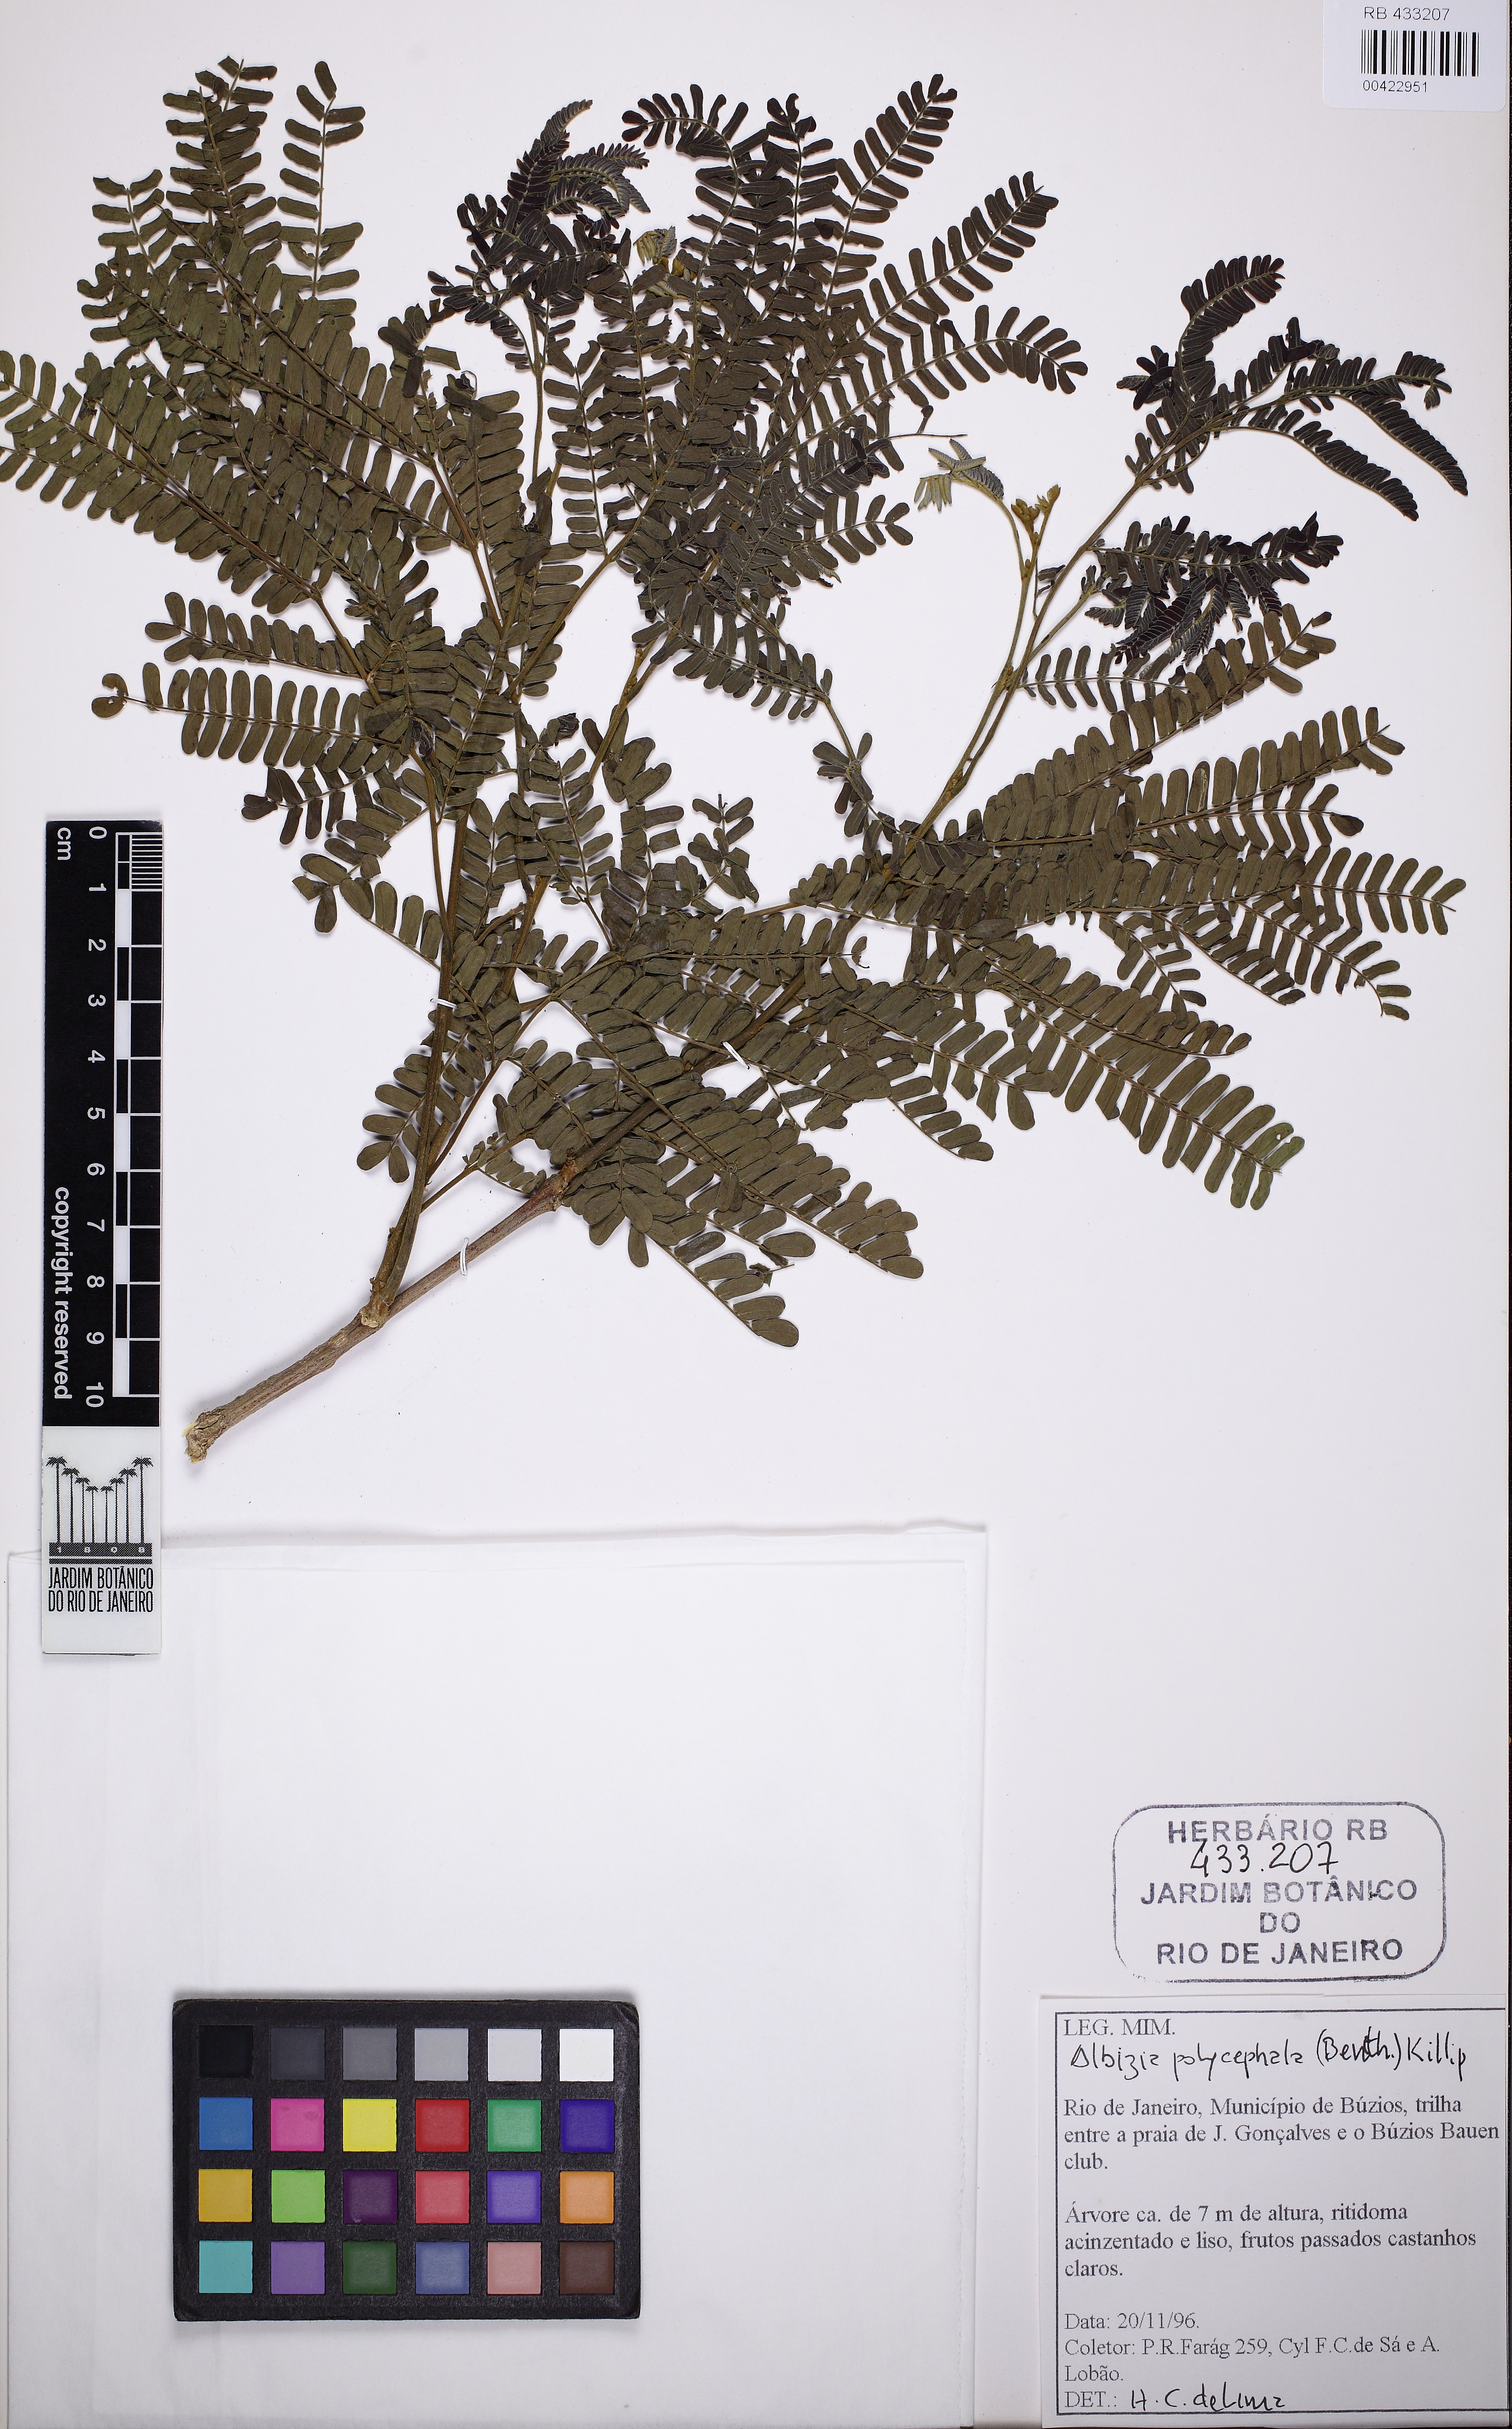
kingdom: Plantae
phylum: Tracheophyta
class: Magnoliopsida
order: Fabales
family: Fabaceae
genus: Albizia
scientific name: Albizia polycephala
